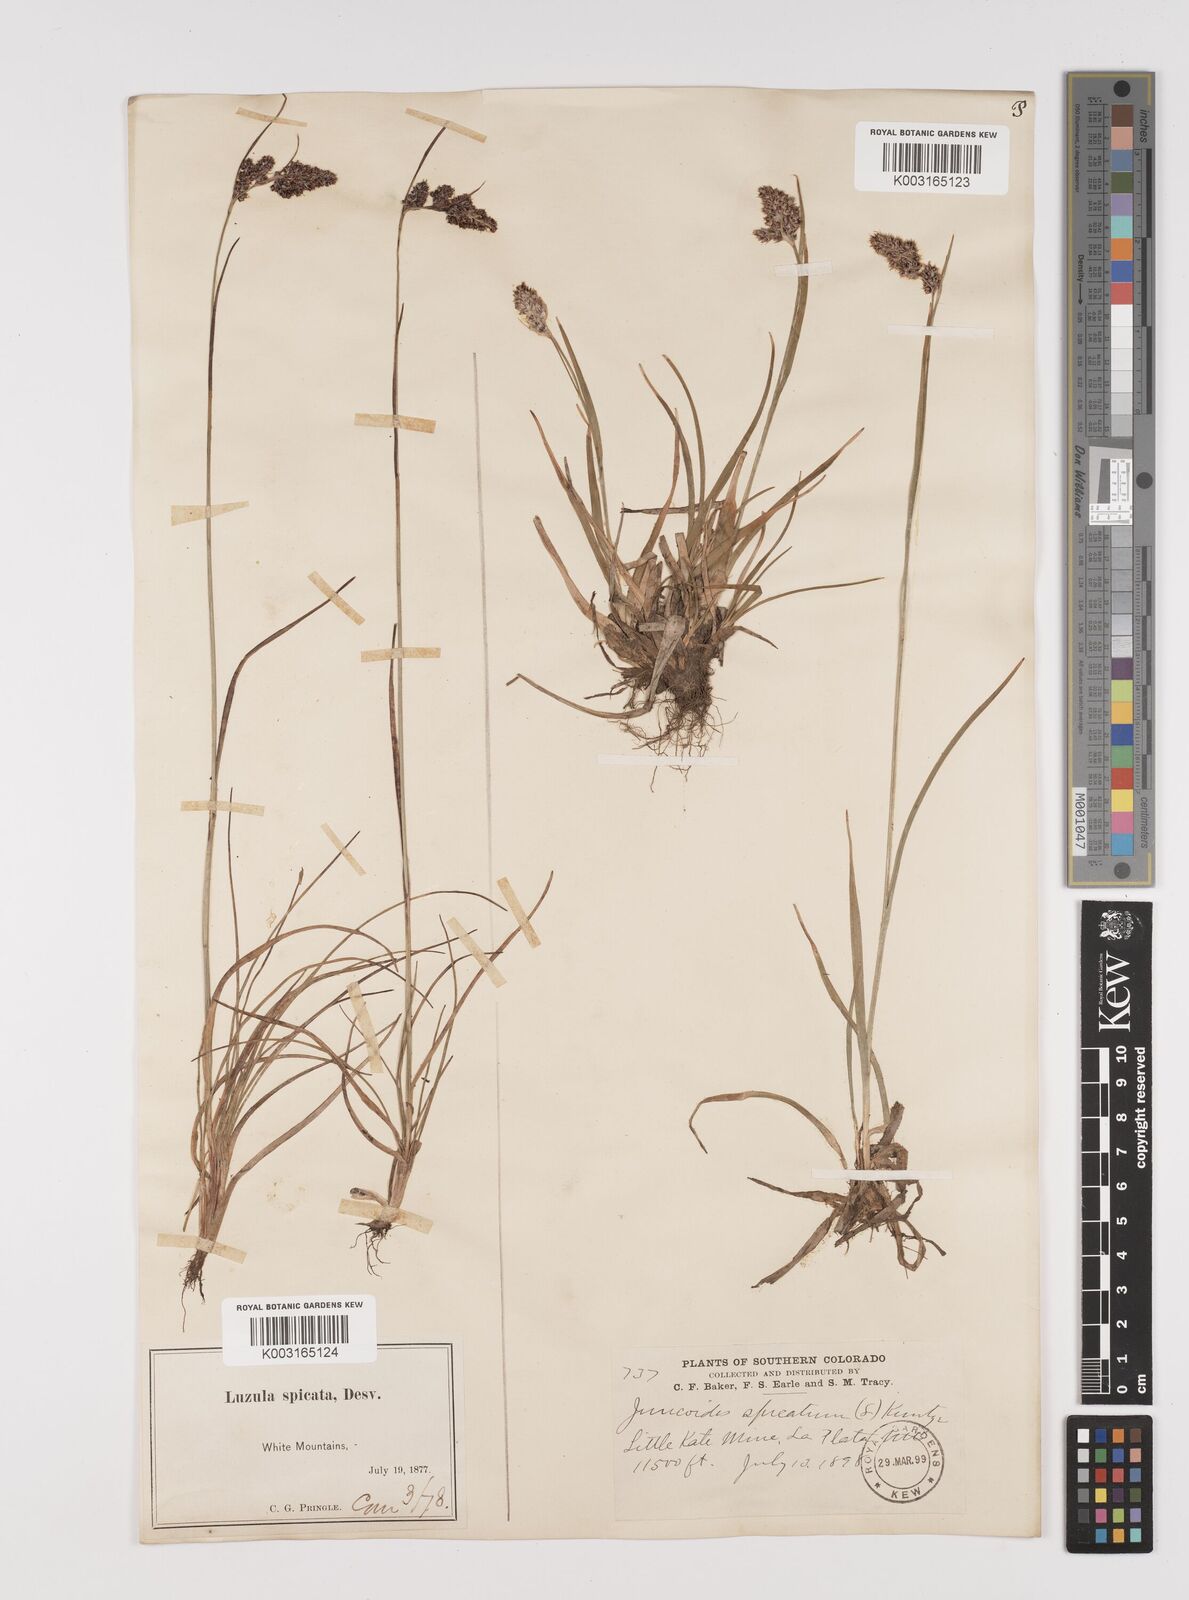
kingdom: Plantae
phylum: Tracheophyta
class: Liliopsida
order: Poales
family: Juncaceae
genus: Luzula
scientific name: Luzula spicata
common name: Spiked wood-rush
